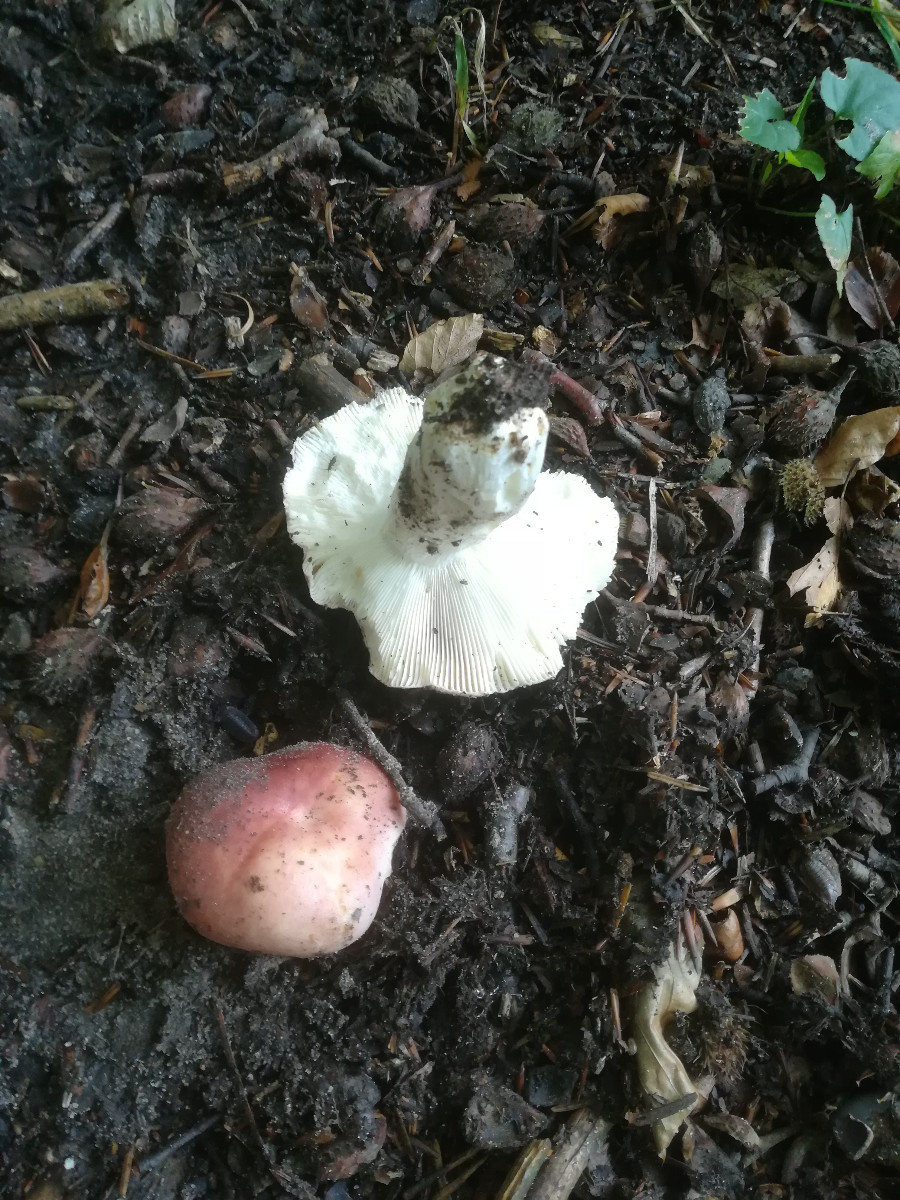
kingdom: Fungi
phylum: Basidiomycota
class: Agaricomycetes
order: Russulales
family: Russulaceae
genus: Russula
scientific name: Russula vesca
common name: spiselig skørhat
